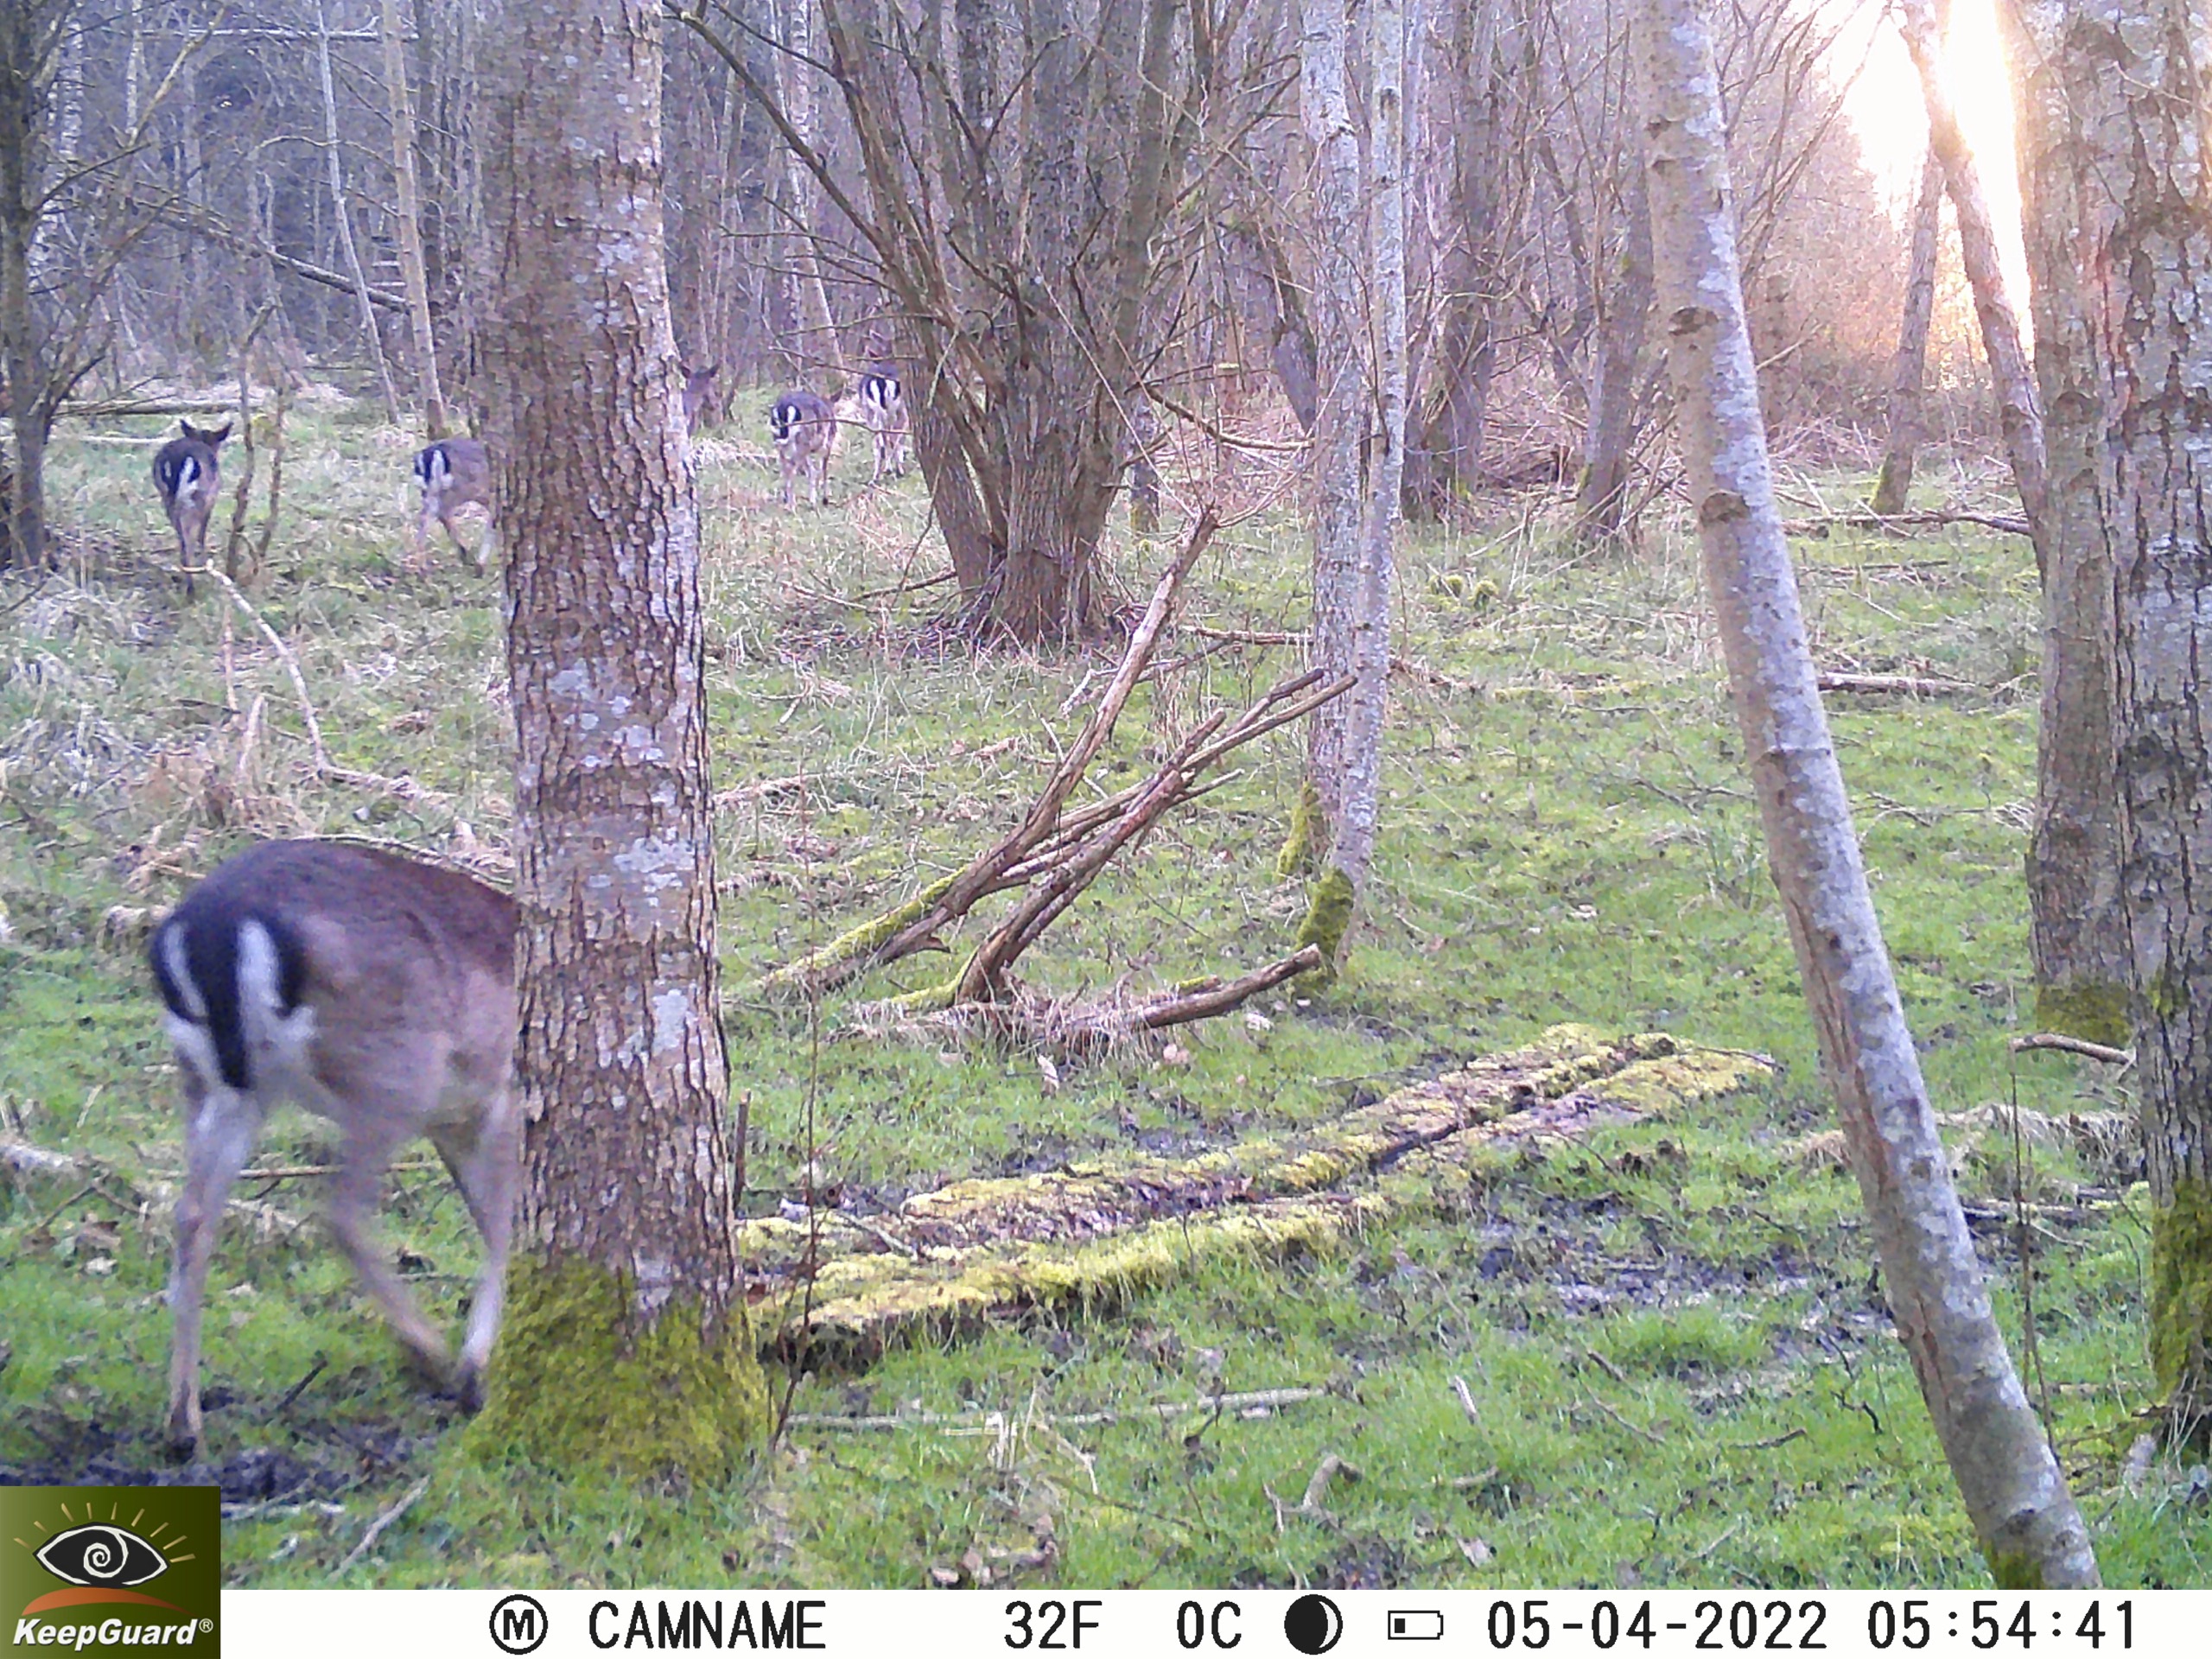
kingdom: Animalia
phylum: Chordata
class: Mammalia
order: Artiodactyla
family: Cervidae
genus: Dama
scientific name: Dama dama
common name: Dådyr
